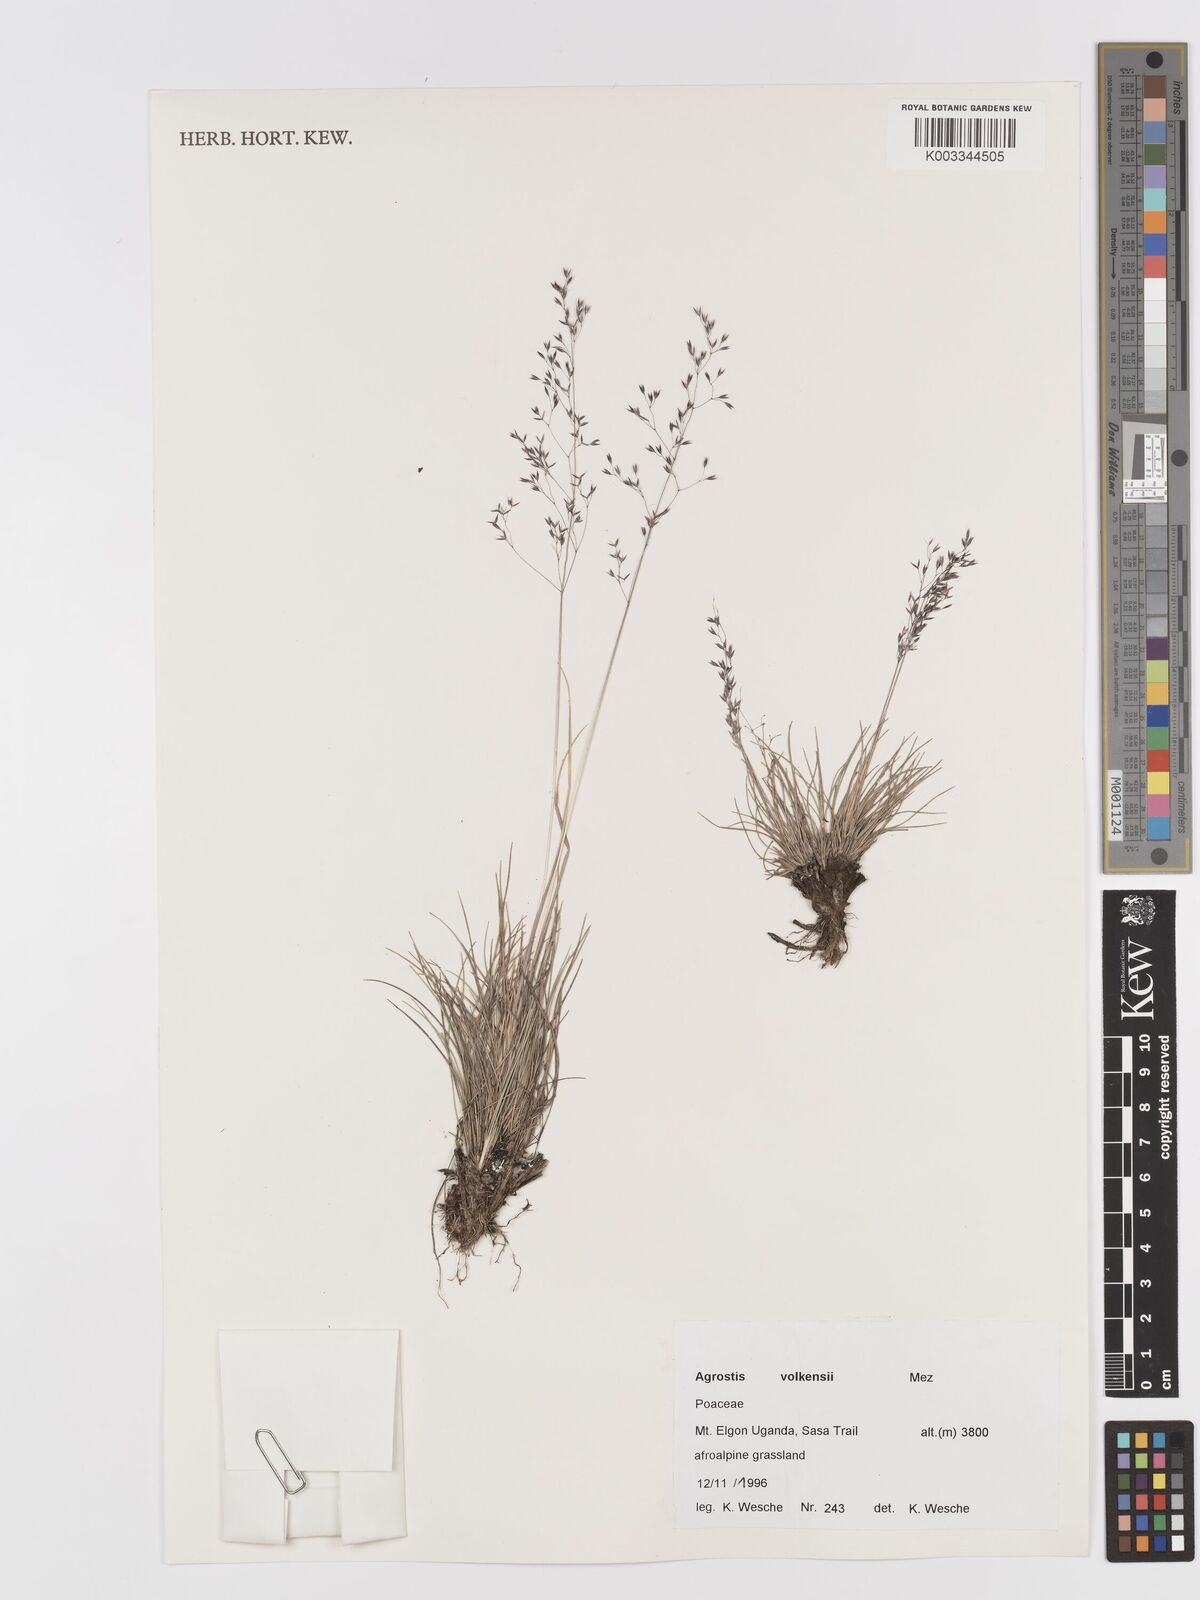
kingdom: Plantae
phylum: Tracheophyta
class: Liliopsida
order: Poales
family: Poaceae
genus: Agrostis
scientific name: Agrostis volkensii
